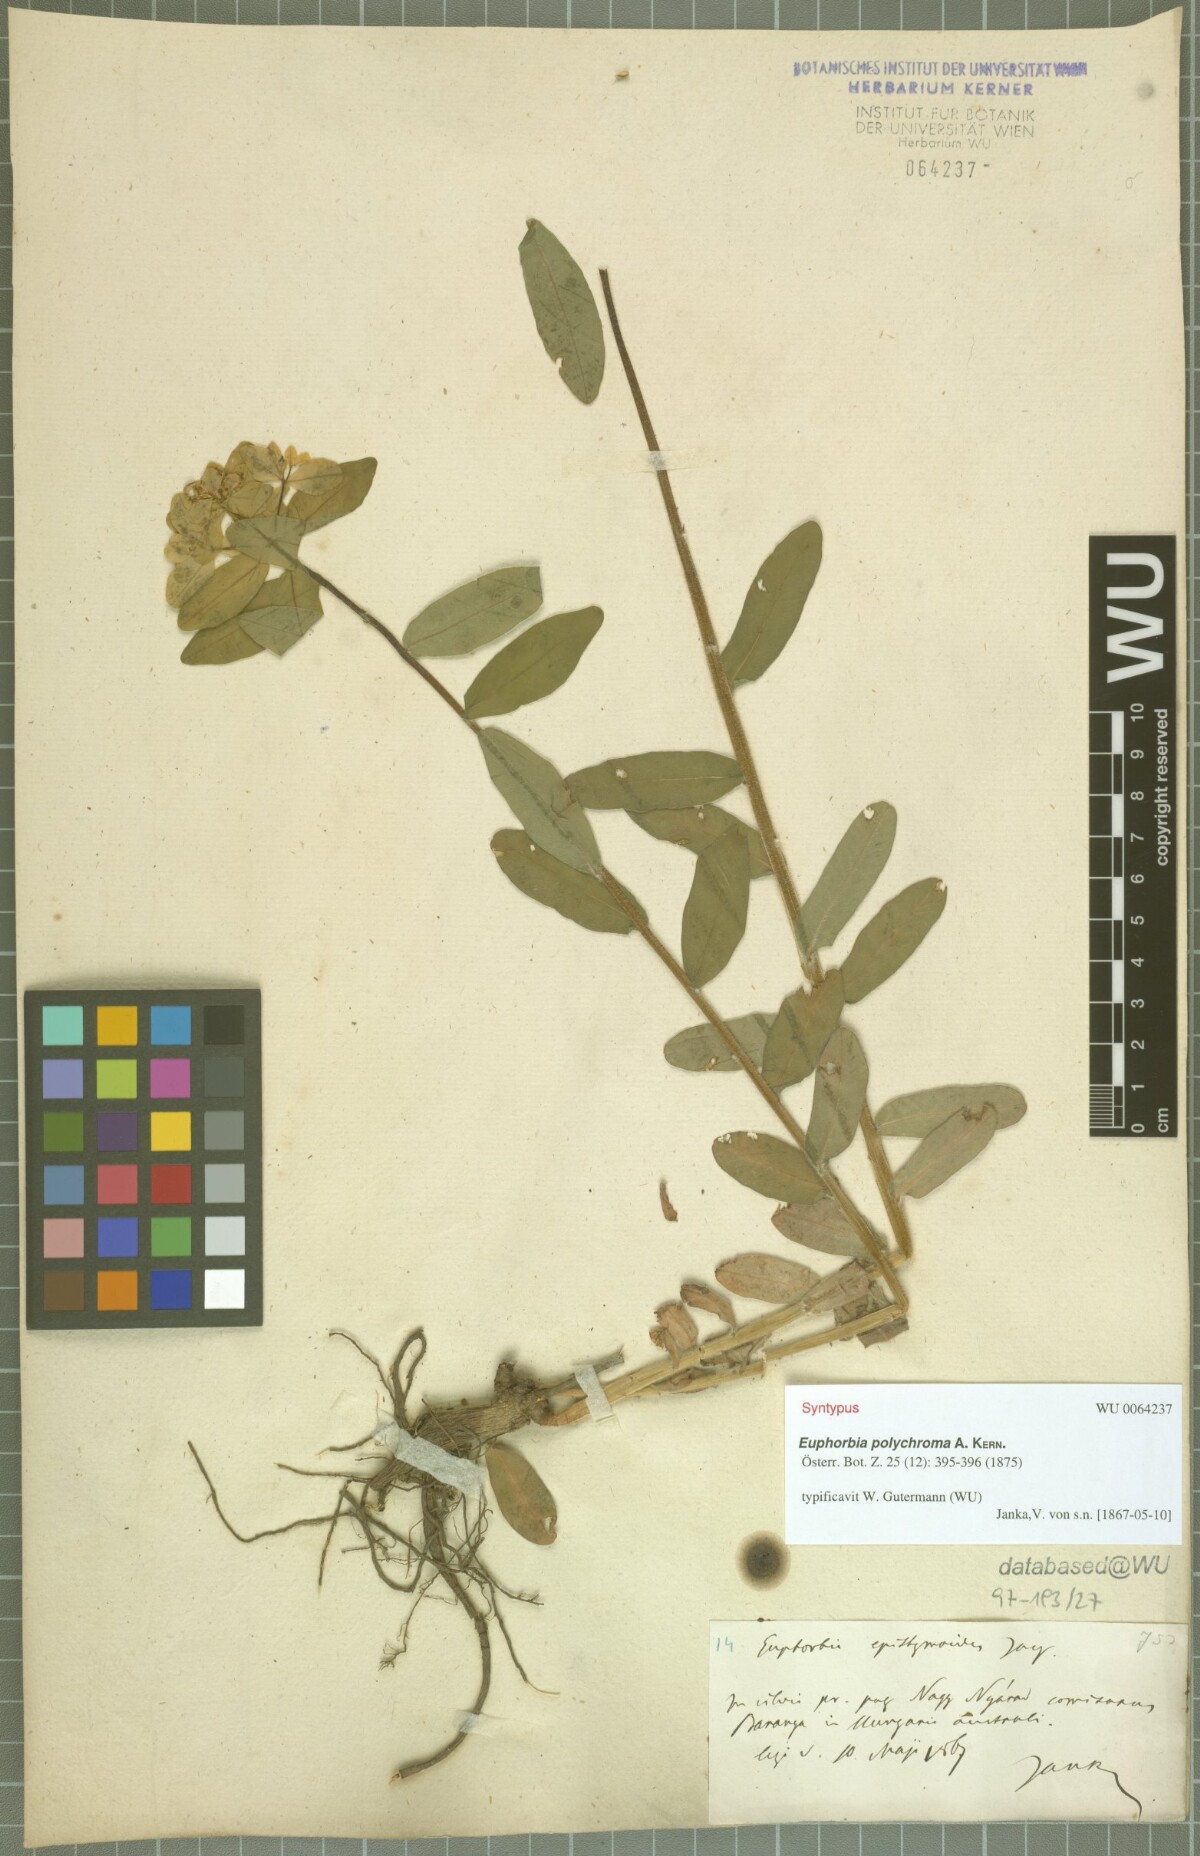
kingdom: Plantae
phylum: Tracheophyta
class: Magnoliopsida
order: Malpighiales
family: Euphorbiaceae
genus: Euphorbia
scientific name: Euphorbia epithymoides
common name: Cushion spurge
